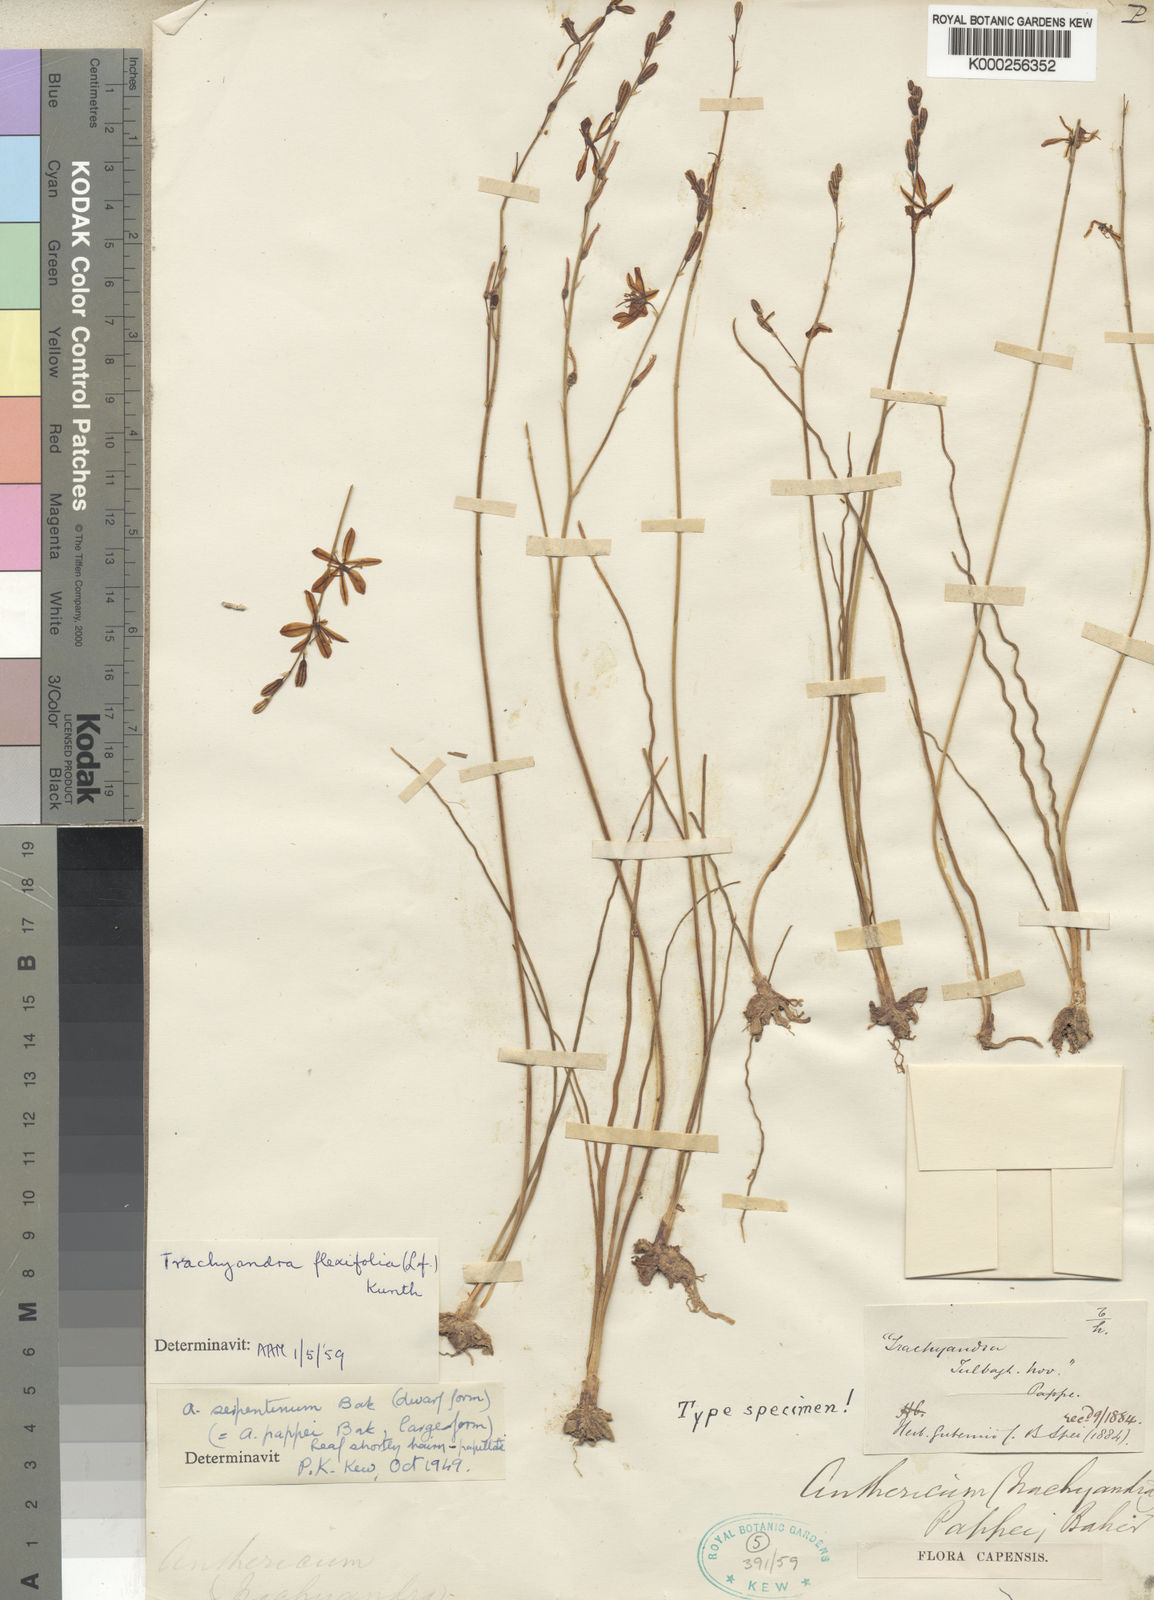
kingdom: Plantae
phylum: Tracheophyta
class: Liliopsida
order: Asparagales
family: Asphodelaceae
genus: Trachyandra
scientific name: Trachyandra flexifolia
